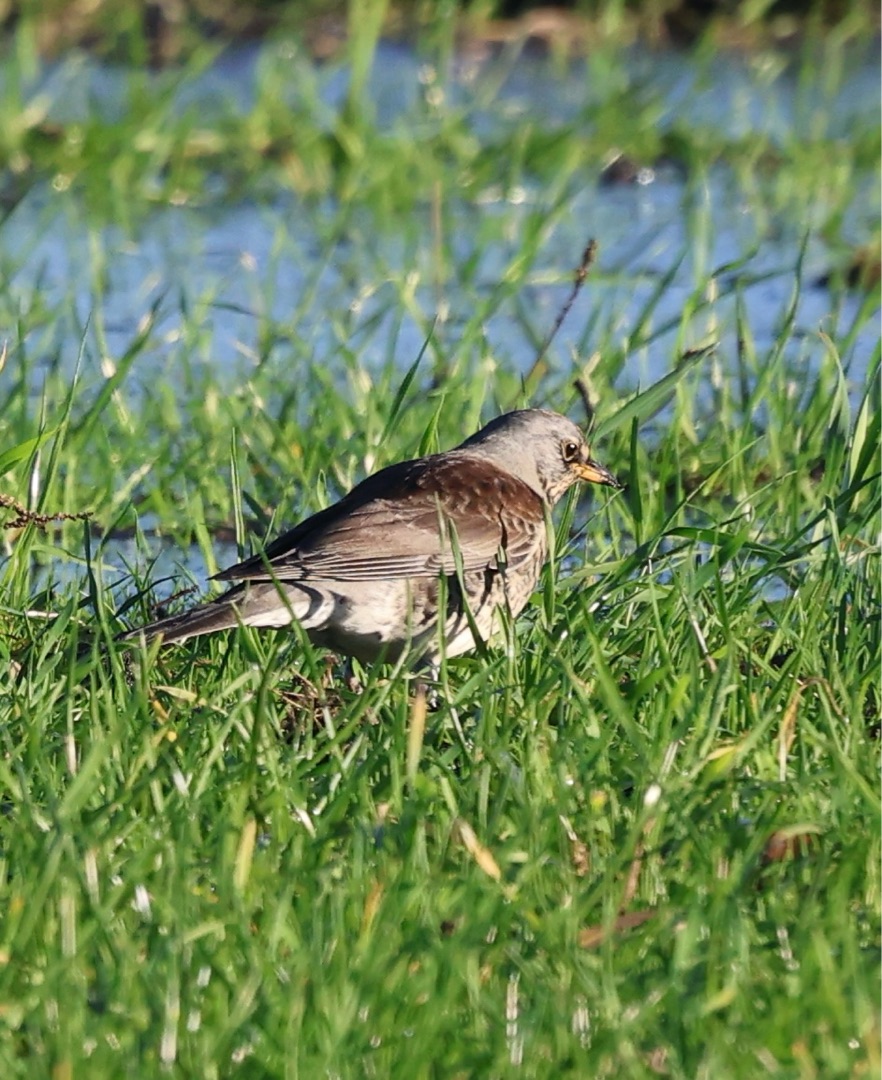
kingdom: Animalia
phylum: Chordata
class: Aves
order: Passeriformes
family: Turdidae
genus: Turdus
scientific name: Turdus pilaris
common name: Sjagger
